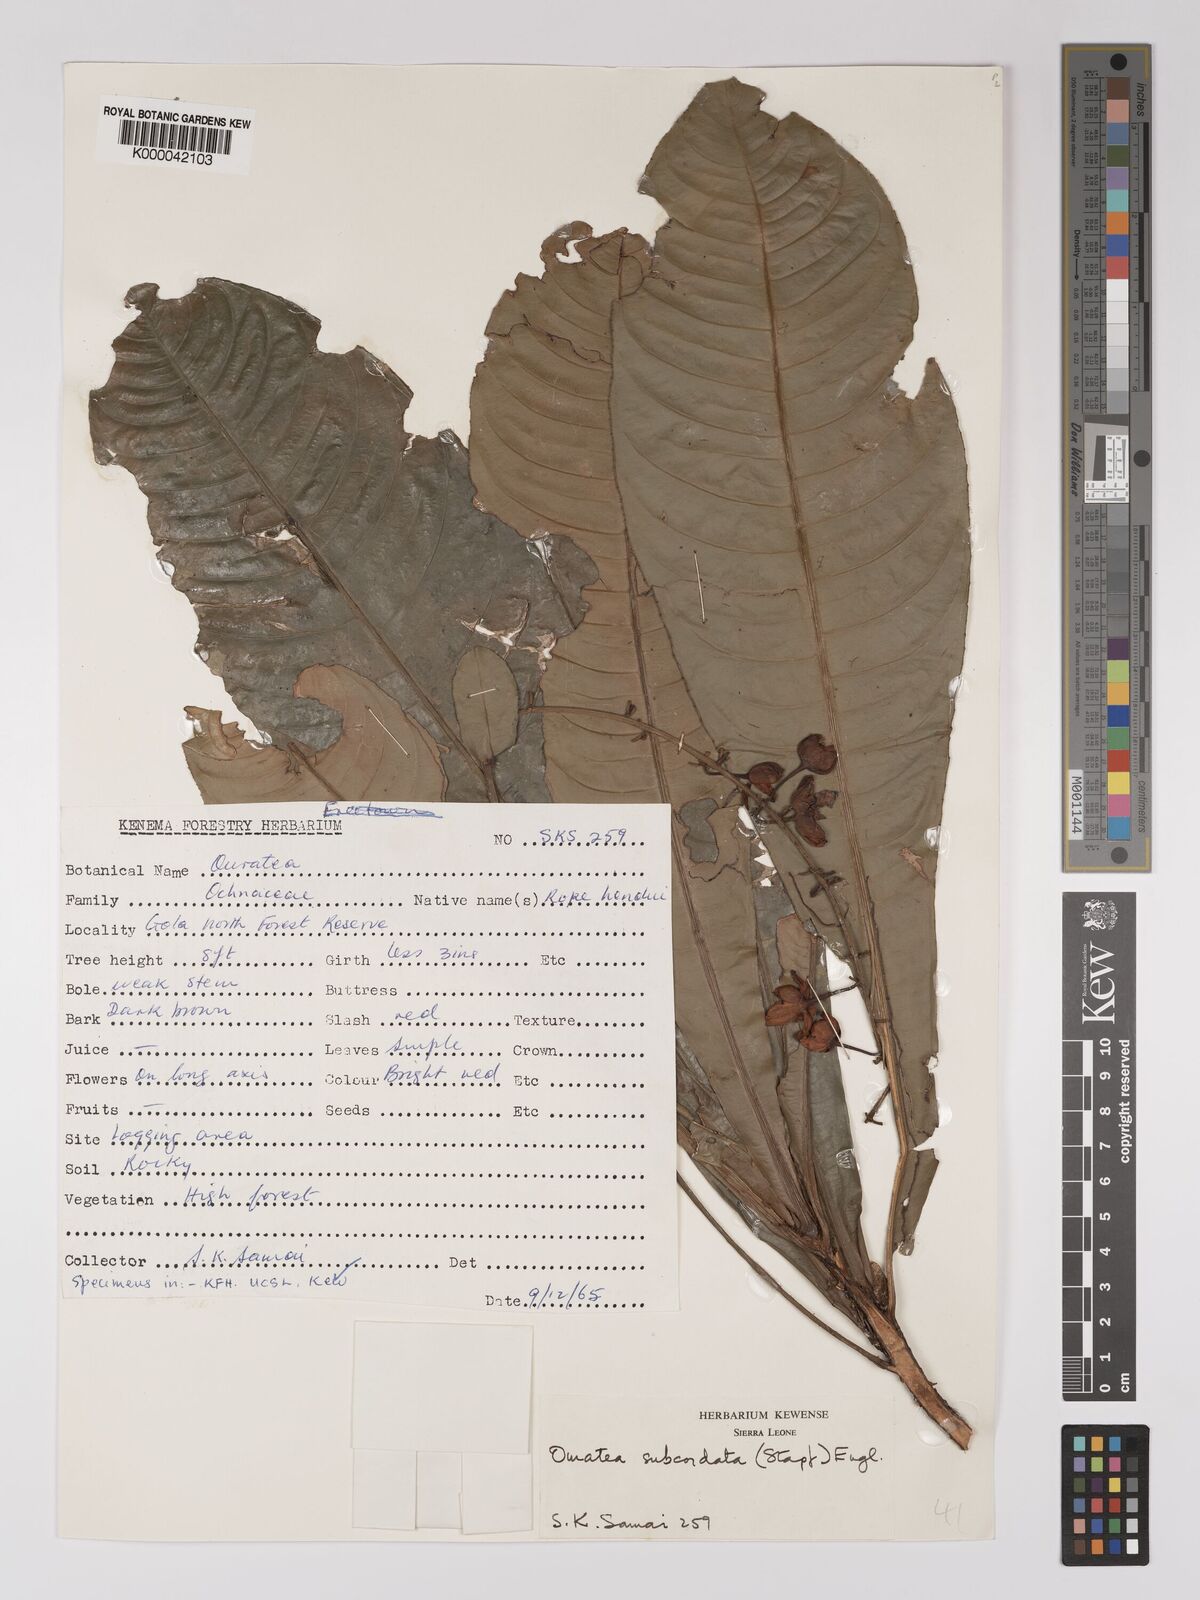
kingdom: Plantae
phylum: Tracheophyta
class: Magnoliopsida
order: Malpighiales
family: Ochnaceae
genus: Campylospermum
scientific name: Campylospermum subcordatum
